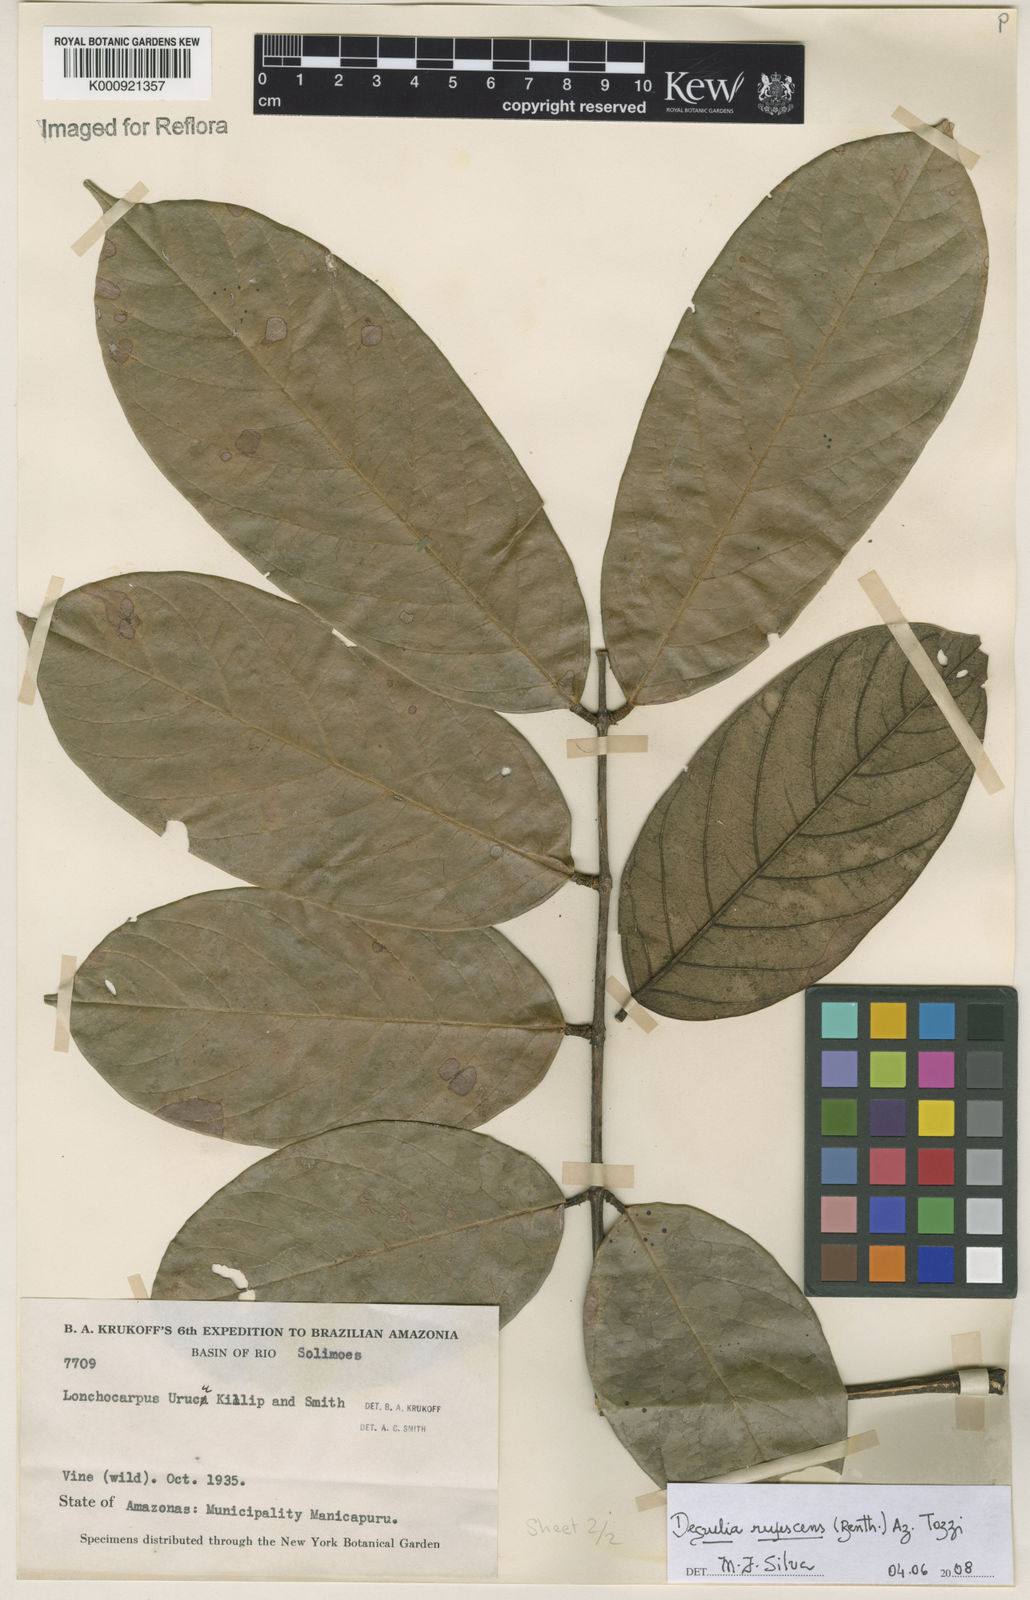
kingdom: Plantae
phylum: Tracheophyta
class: Magnoliopsida
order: Fabales
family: Fabaceae
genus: Deguelia
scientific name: Deguelia
